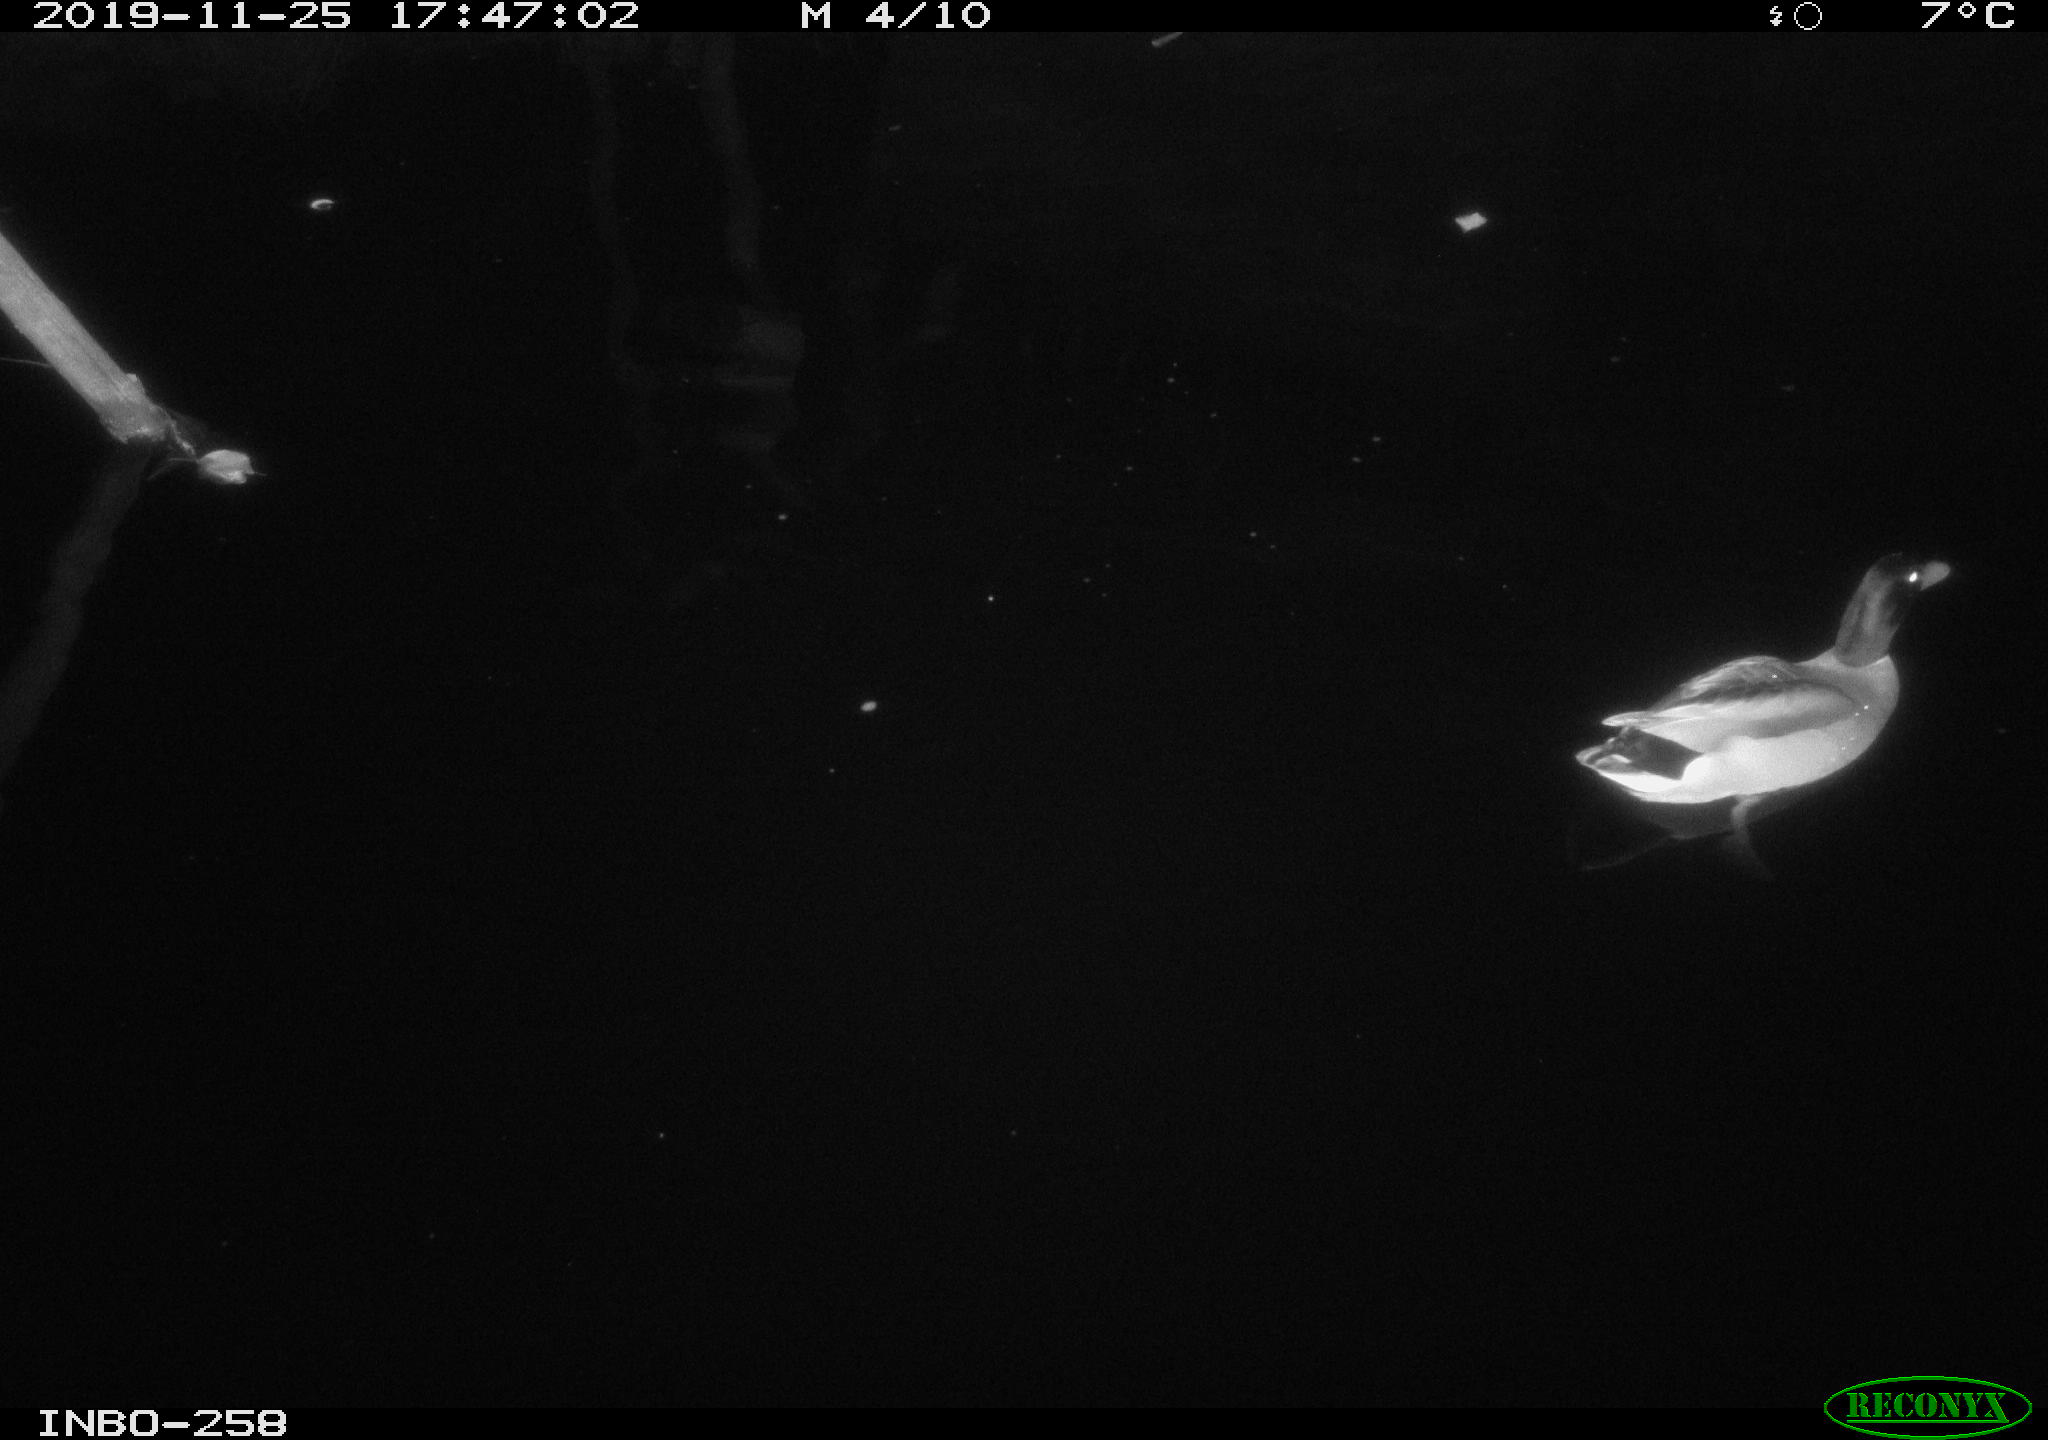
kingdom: Animalia
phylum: Chordata
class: Aves
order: Anseriformes
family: Anatidae
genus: Anas
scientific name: Anas platyrhynchos
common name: Mallard
